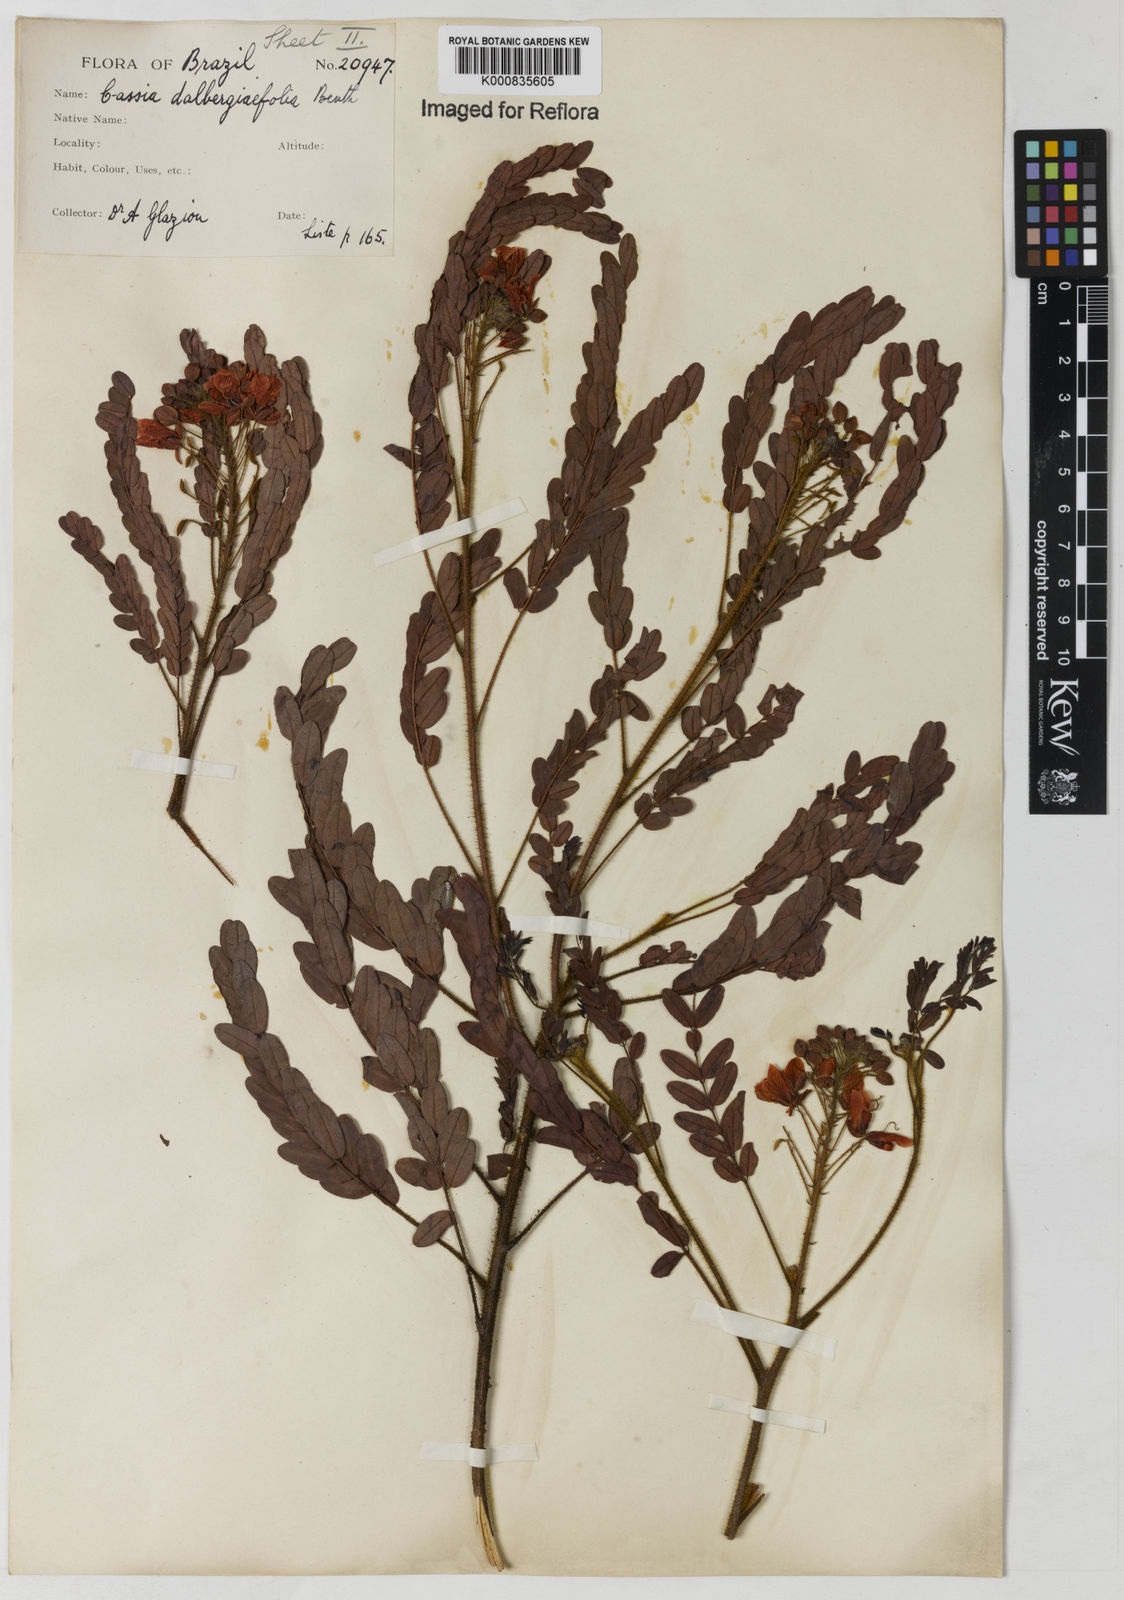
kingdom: Plantae
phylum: Tracheophyta
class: Magnoliopsida
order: Fabales
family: Fabaceae
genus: Chamaecrista
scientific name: Chamaecrista dalbergiifolia
